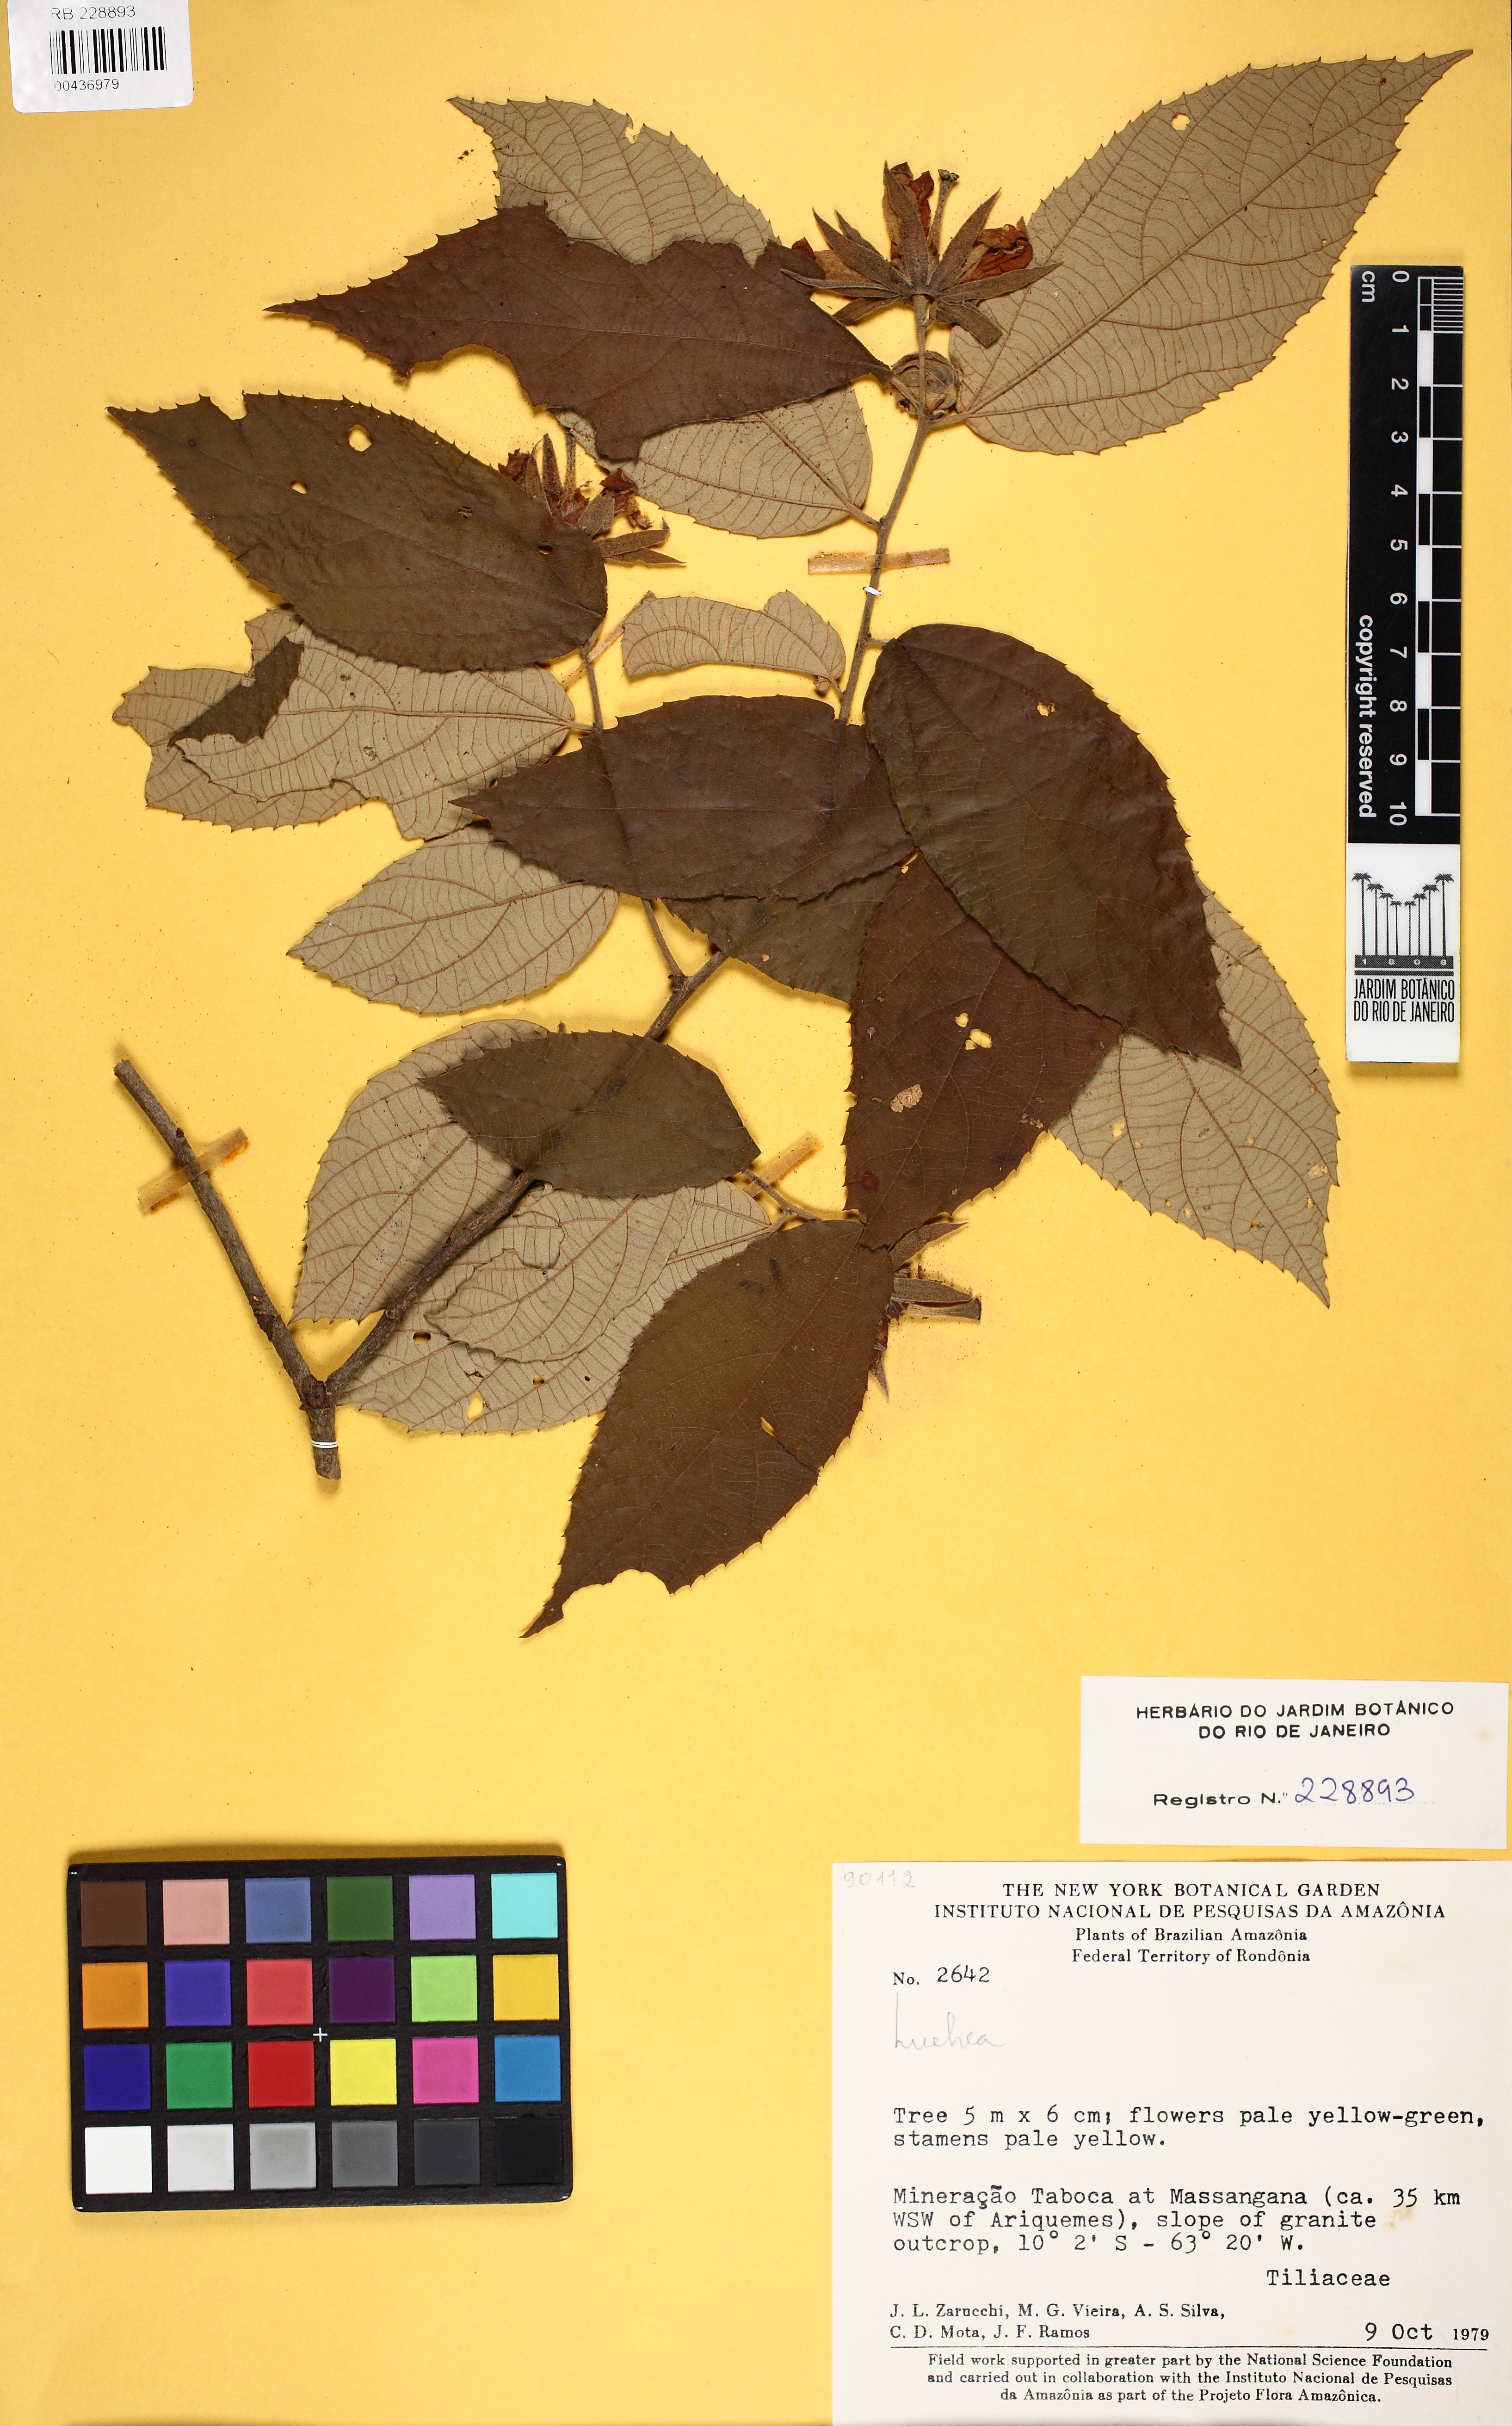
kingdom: Plantae
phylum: Tracheophyta
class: Magnoliopsida
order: Malvales
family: Malvaceae
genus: Luehea
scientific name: Luehea candicans
